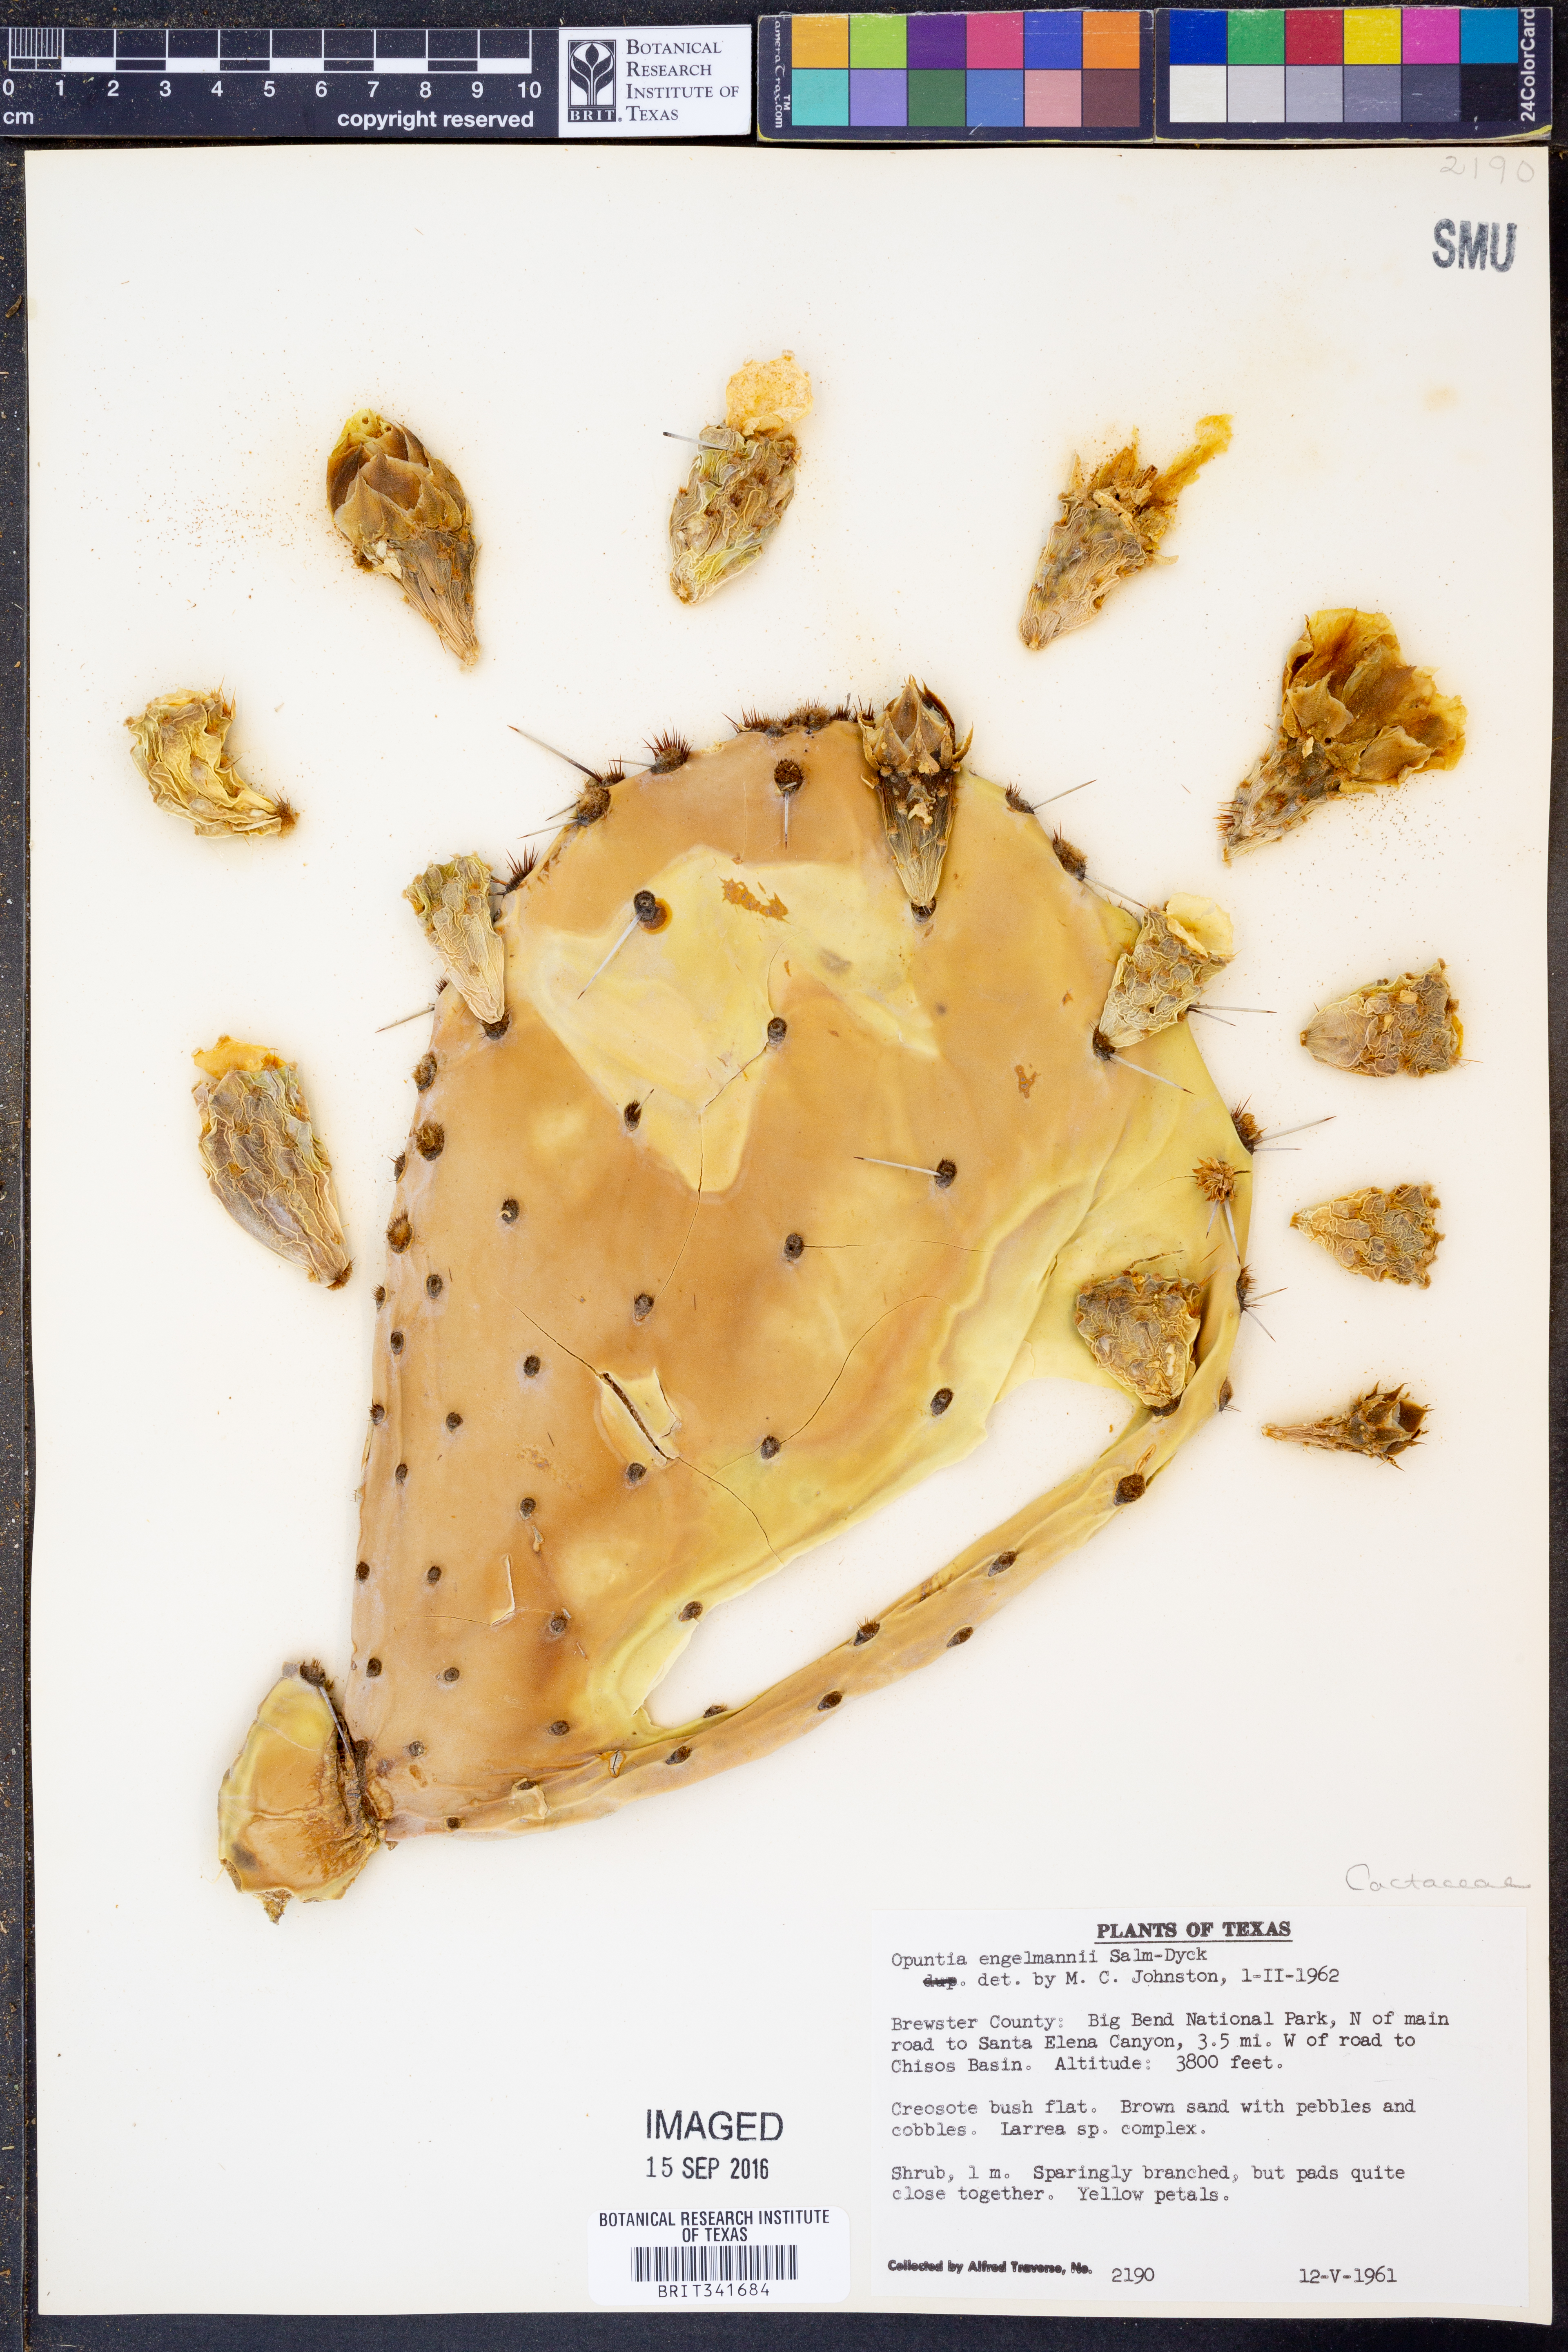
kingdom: Plantae
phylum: Tracheophyta
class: Magnoliopsida
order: Caryophyllales
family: Cactaceae
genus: Opuntia
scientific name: Opuntia engelmannii
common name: Cactus-apple
